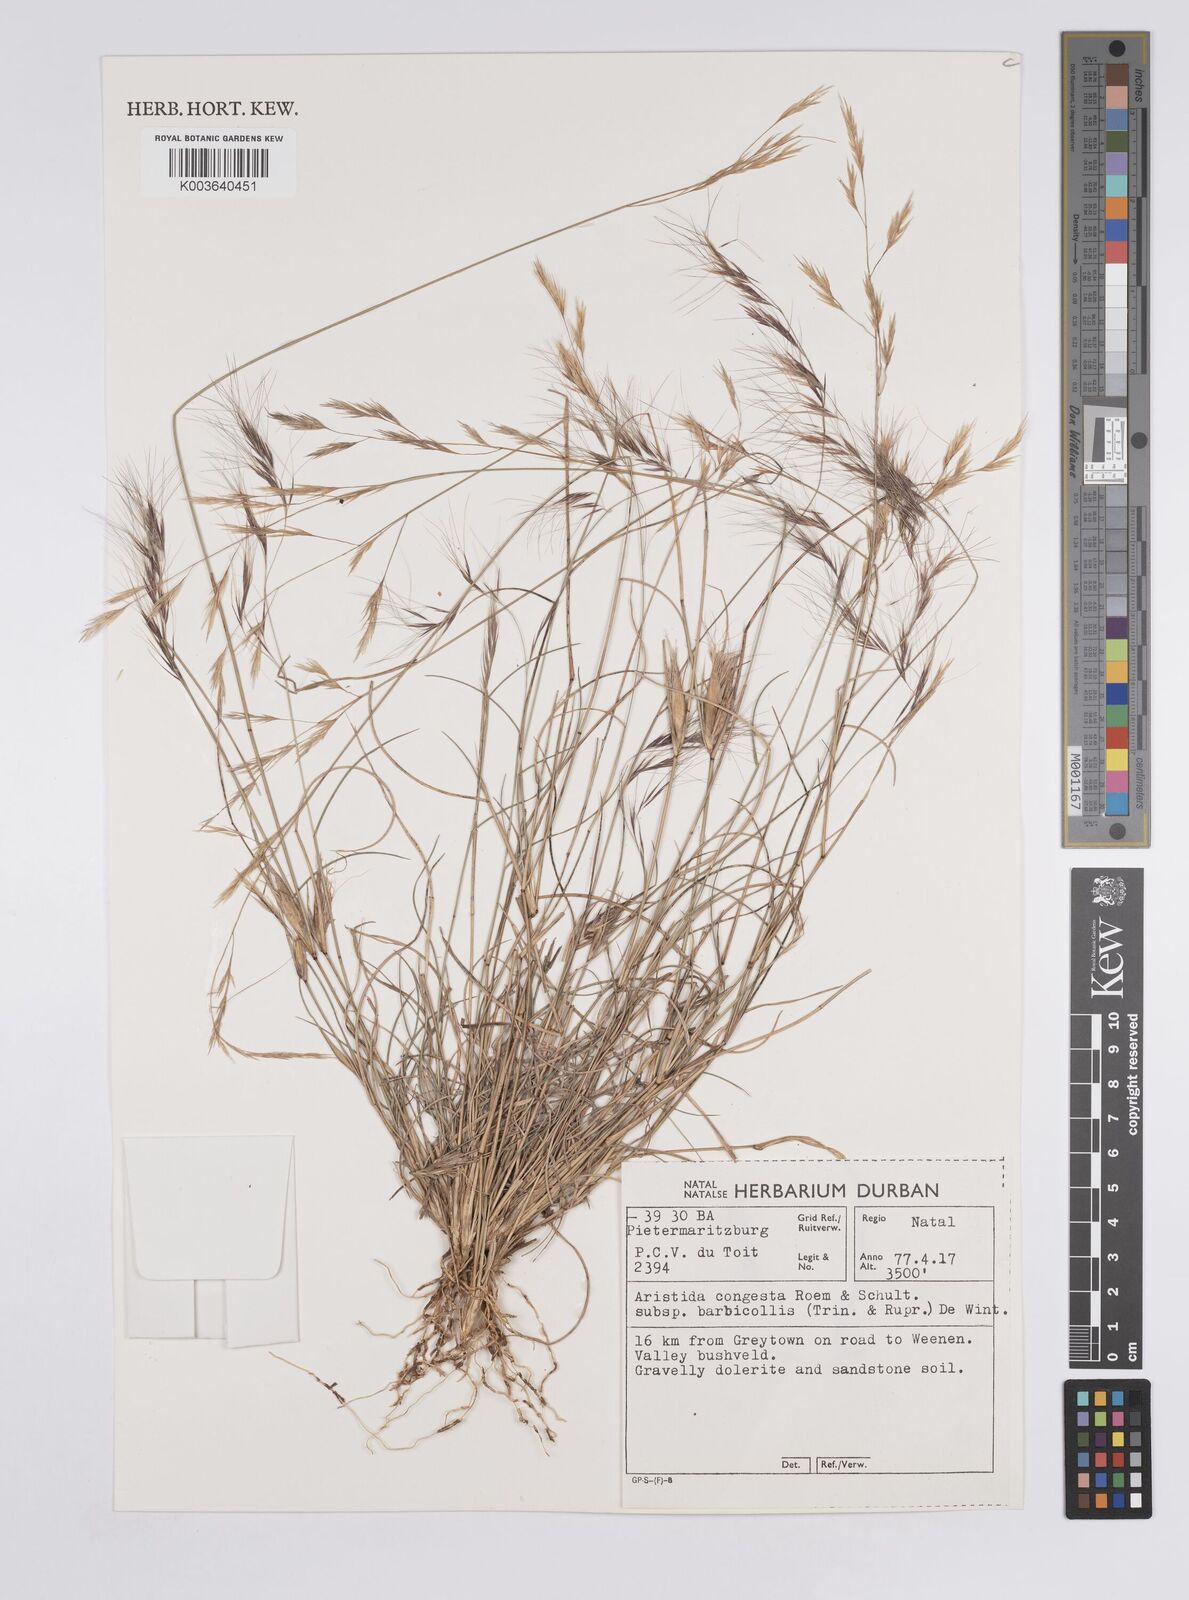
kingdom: Plantae
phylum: Tracheophyta
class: Liliopsida
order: Poales
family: Poaceae
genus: Aristida
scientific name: Aristida barbicollis
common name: Spreading prickle grass
